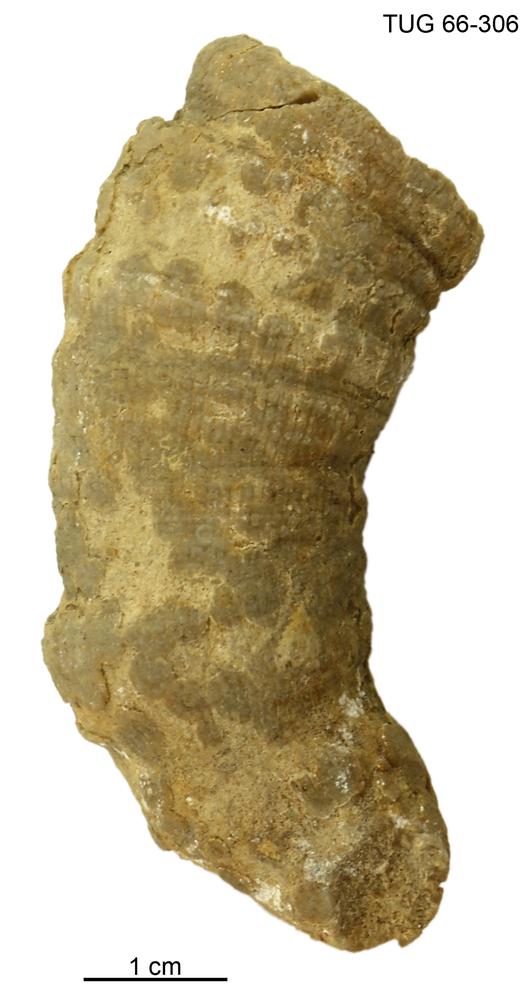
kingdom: Animalia
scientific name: Animalia
